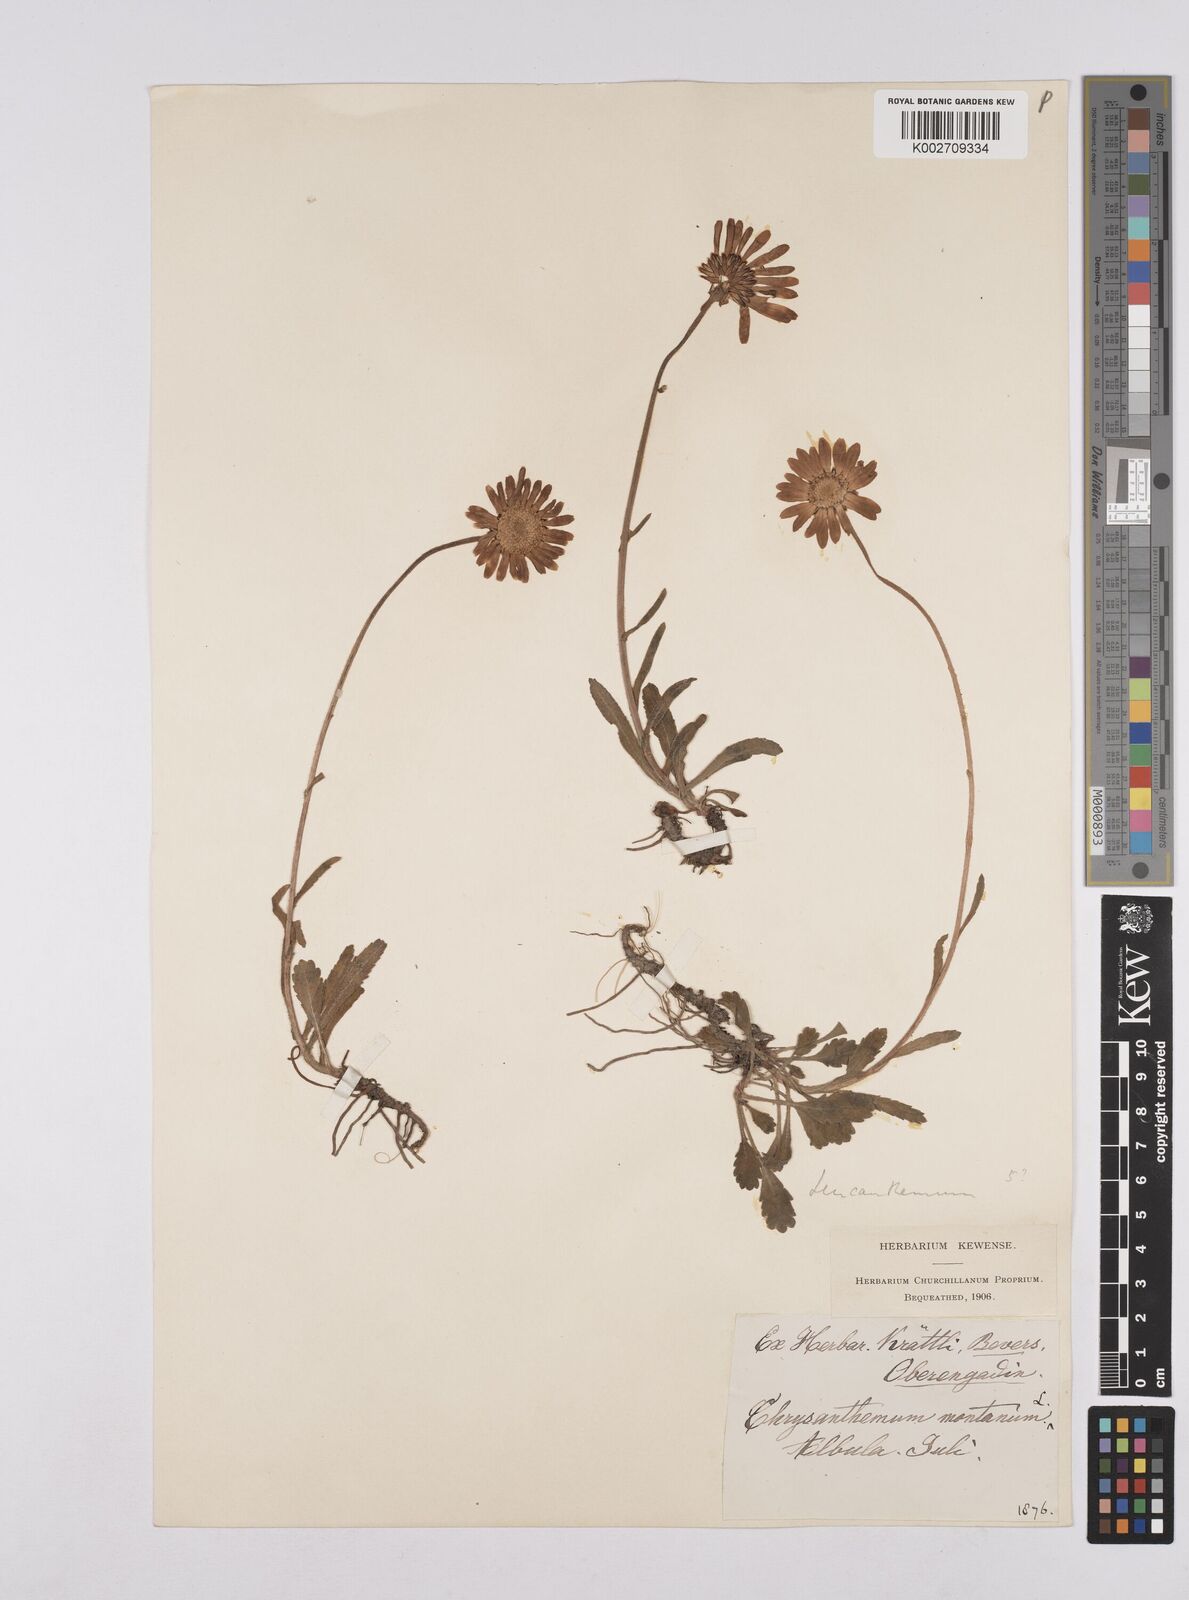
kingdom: Plantae
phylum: Tracheophyta
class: Magnoliopsida
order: Asterales
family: Asteraceae
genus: Leucanthemum
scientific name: Leucanthemum chloroticum
